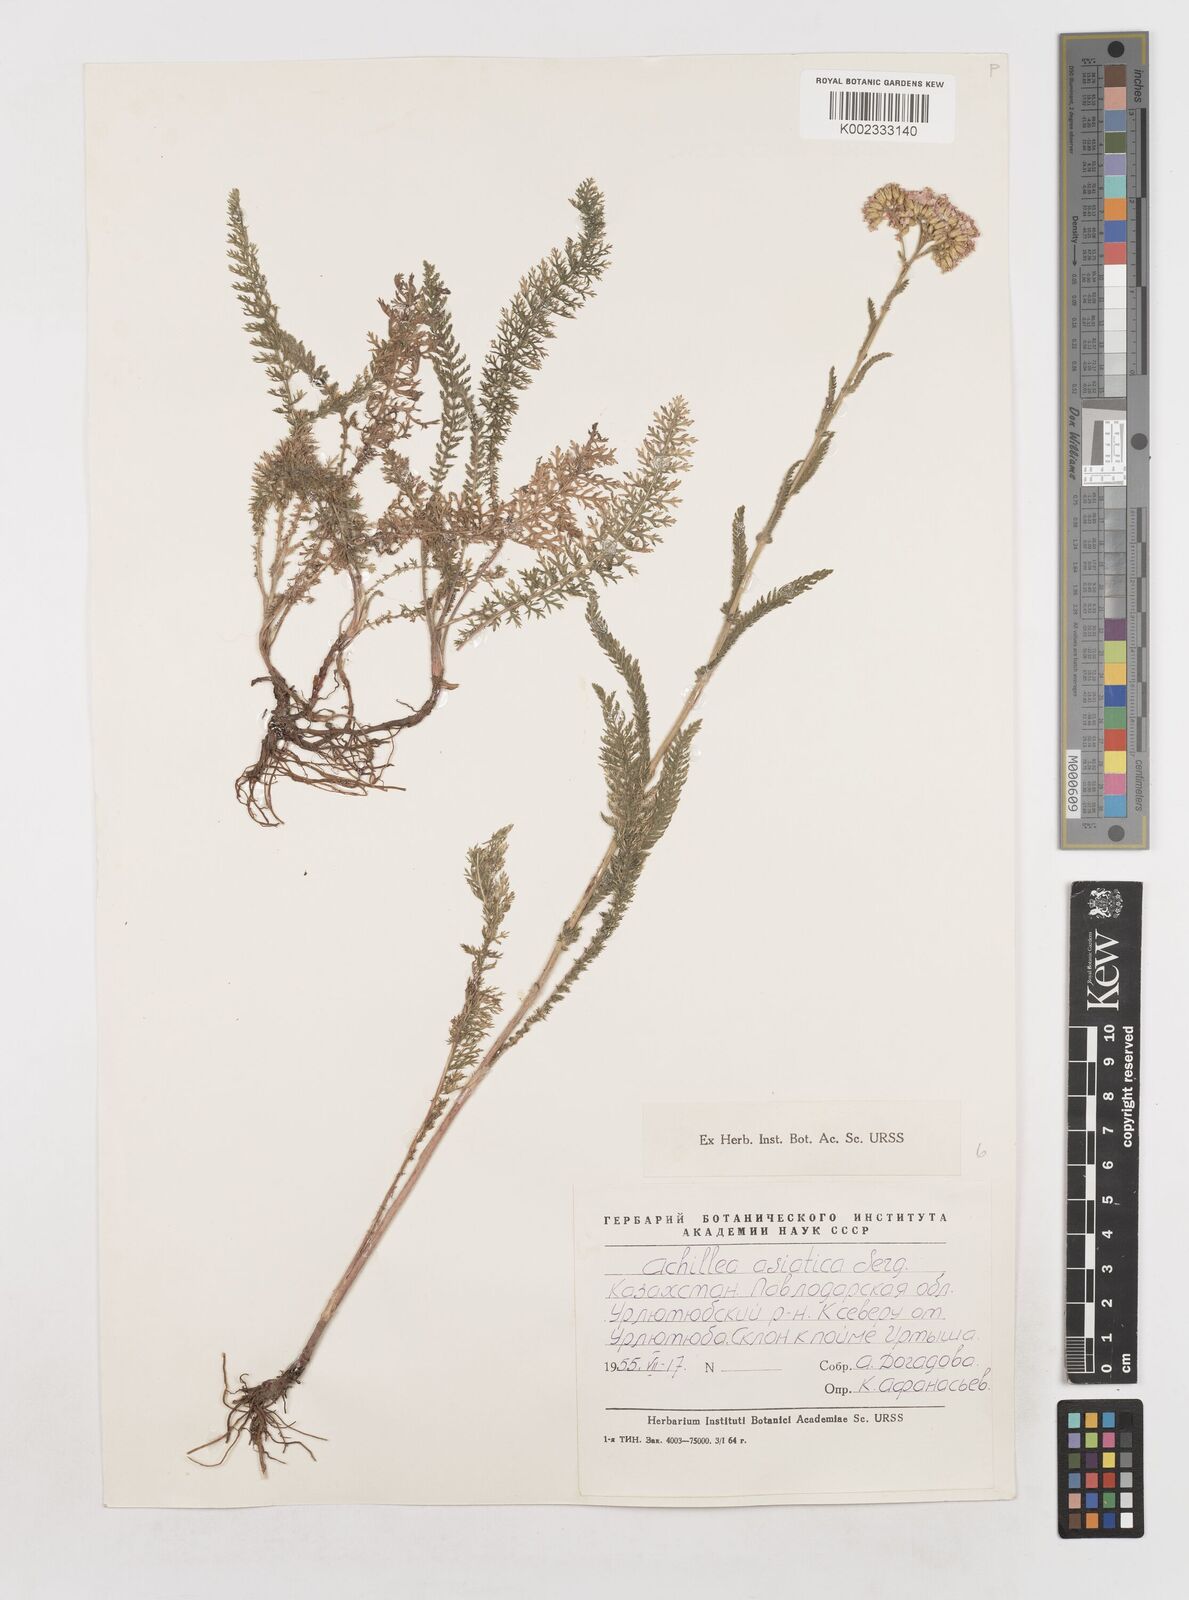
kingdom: Plantae
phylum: Tracheophyta
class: Magnoliopsida
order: Asterales
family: Asteraceae
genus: Achillea
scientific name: Achillea asiatica
